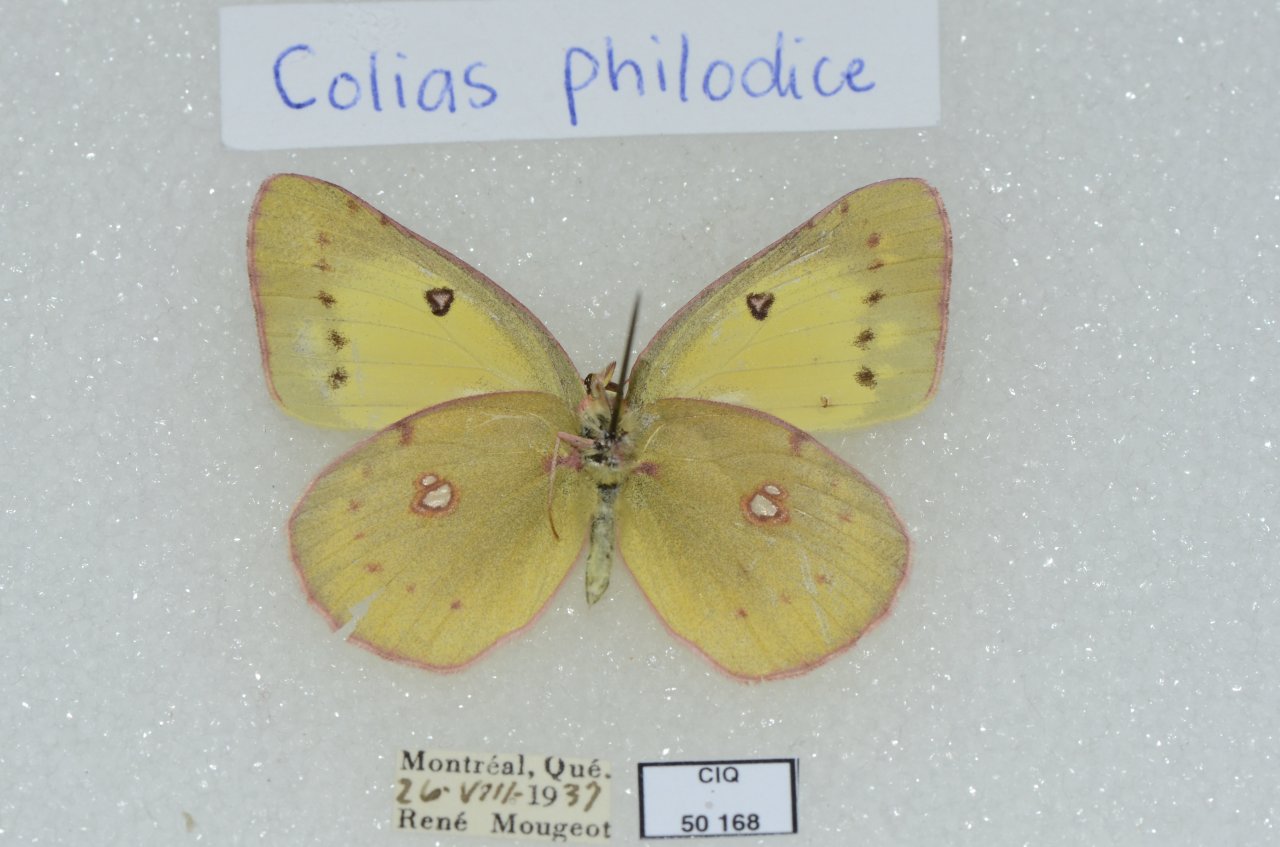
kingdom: Animalia
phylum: Arthropoda
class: Insecta
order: Lepidoptera
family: Pieridae
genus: Colias
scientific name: Colias philodice
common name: Clouded Sulphur
